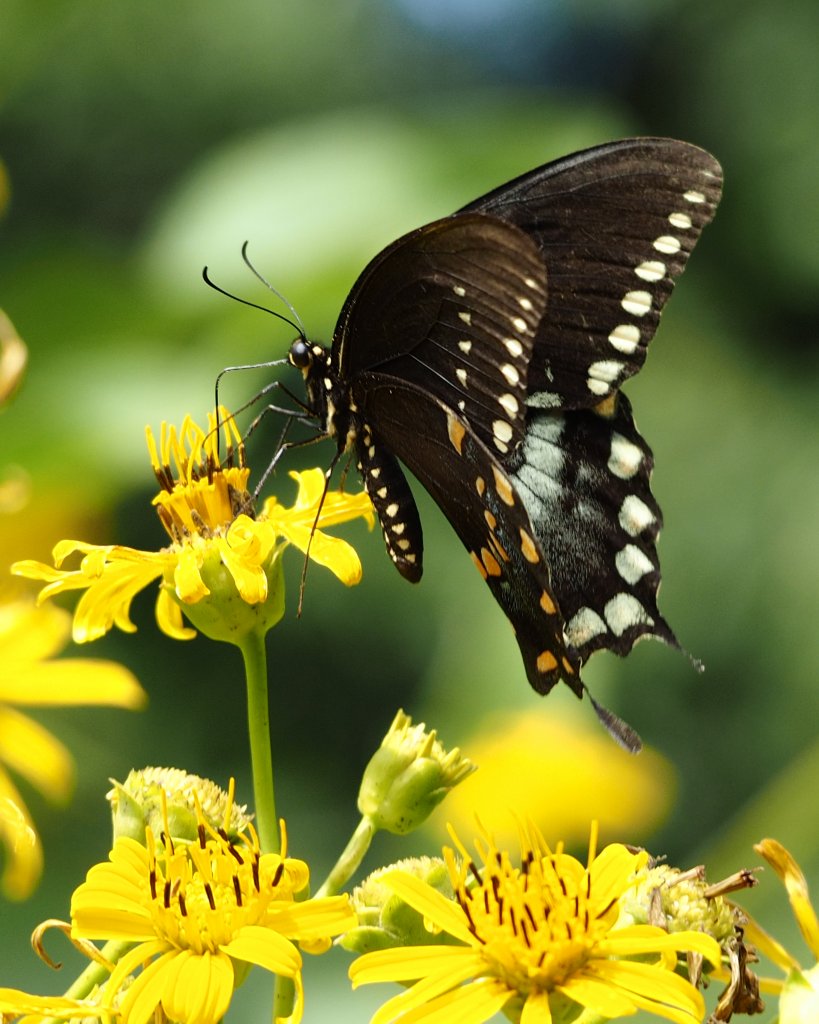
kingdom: Animalia
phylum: Arthropoda
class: Insecta
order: Lepidoptera
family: Papilionidae
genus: Pterourus
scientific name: Pterourus troilus
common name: Spicebush Swallowtail
